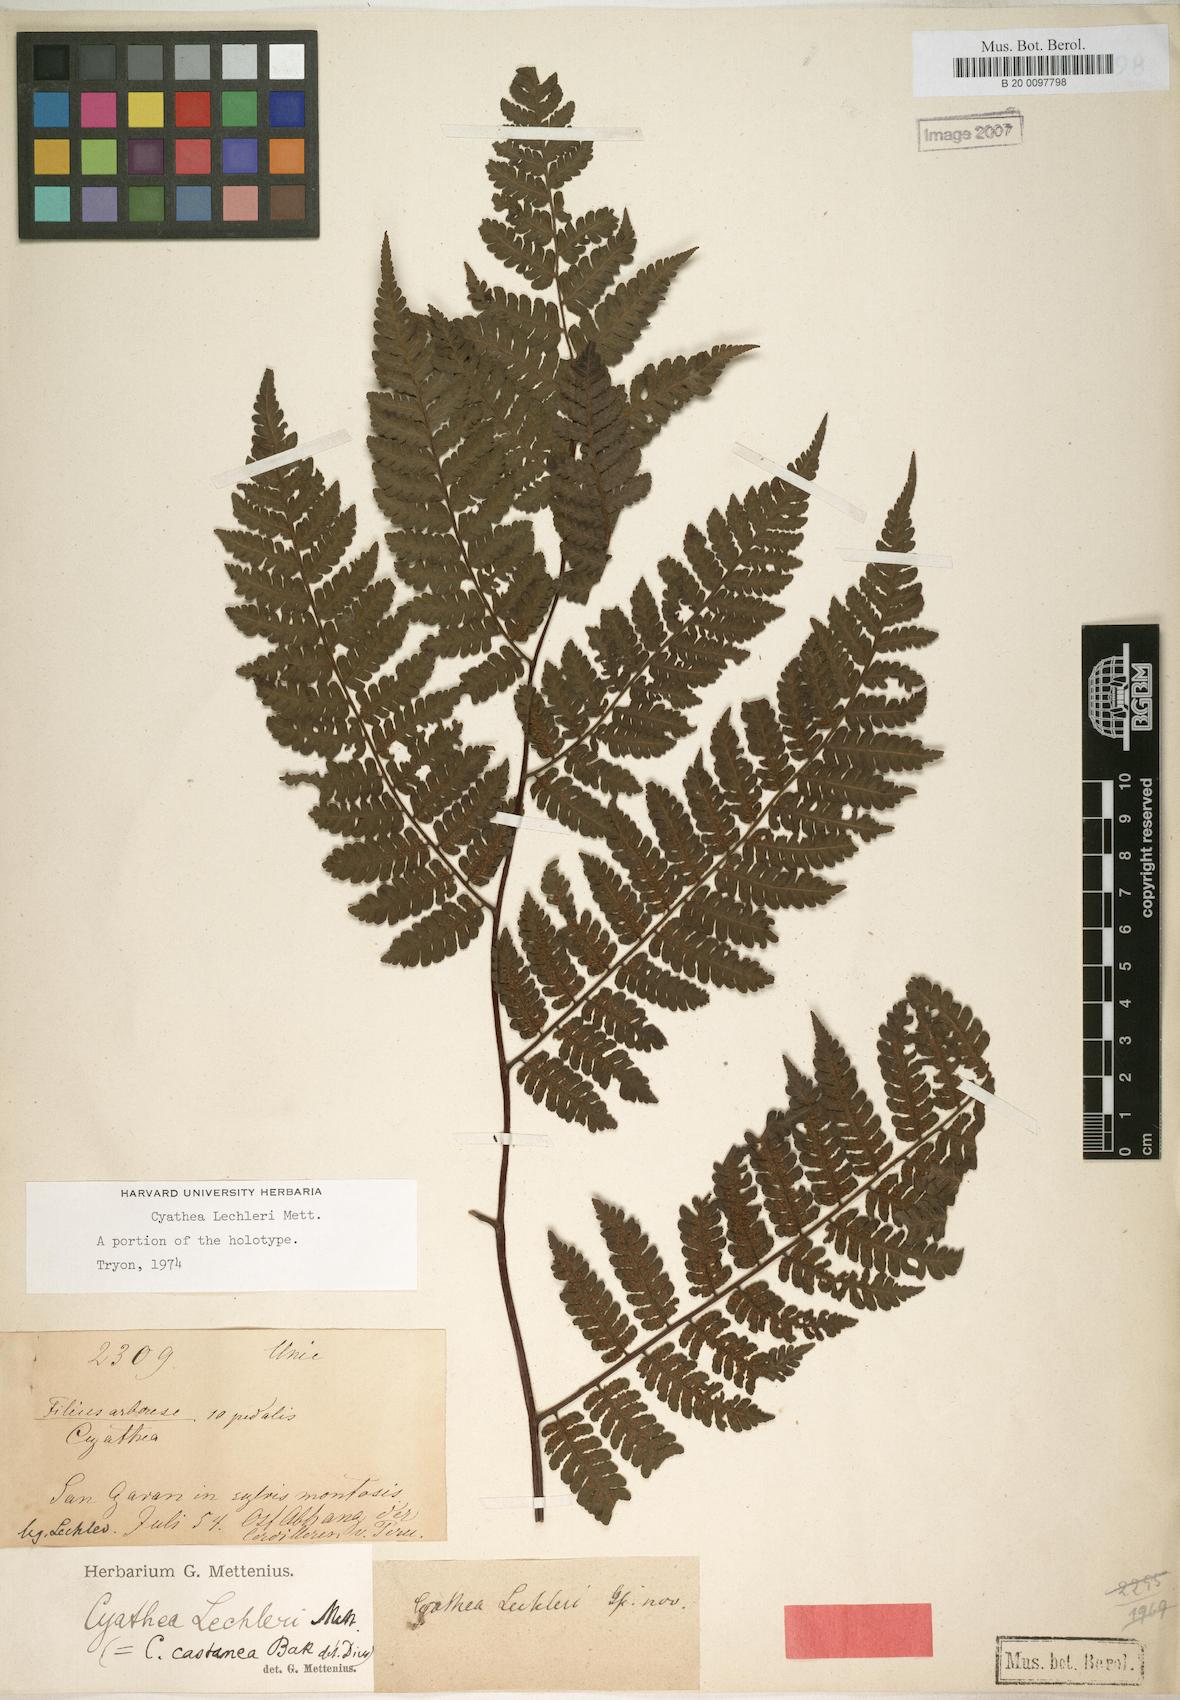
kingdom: Plantae
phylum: Tracheophyta
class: Polypodiopsida
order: Cyatheales
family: Cyatheaceae
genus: Cyathea
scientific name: Cyathea lechleri
